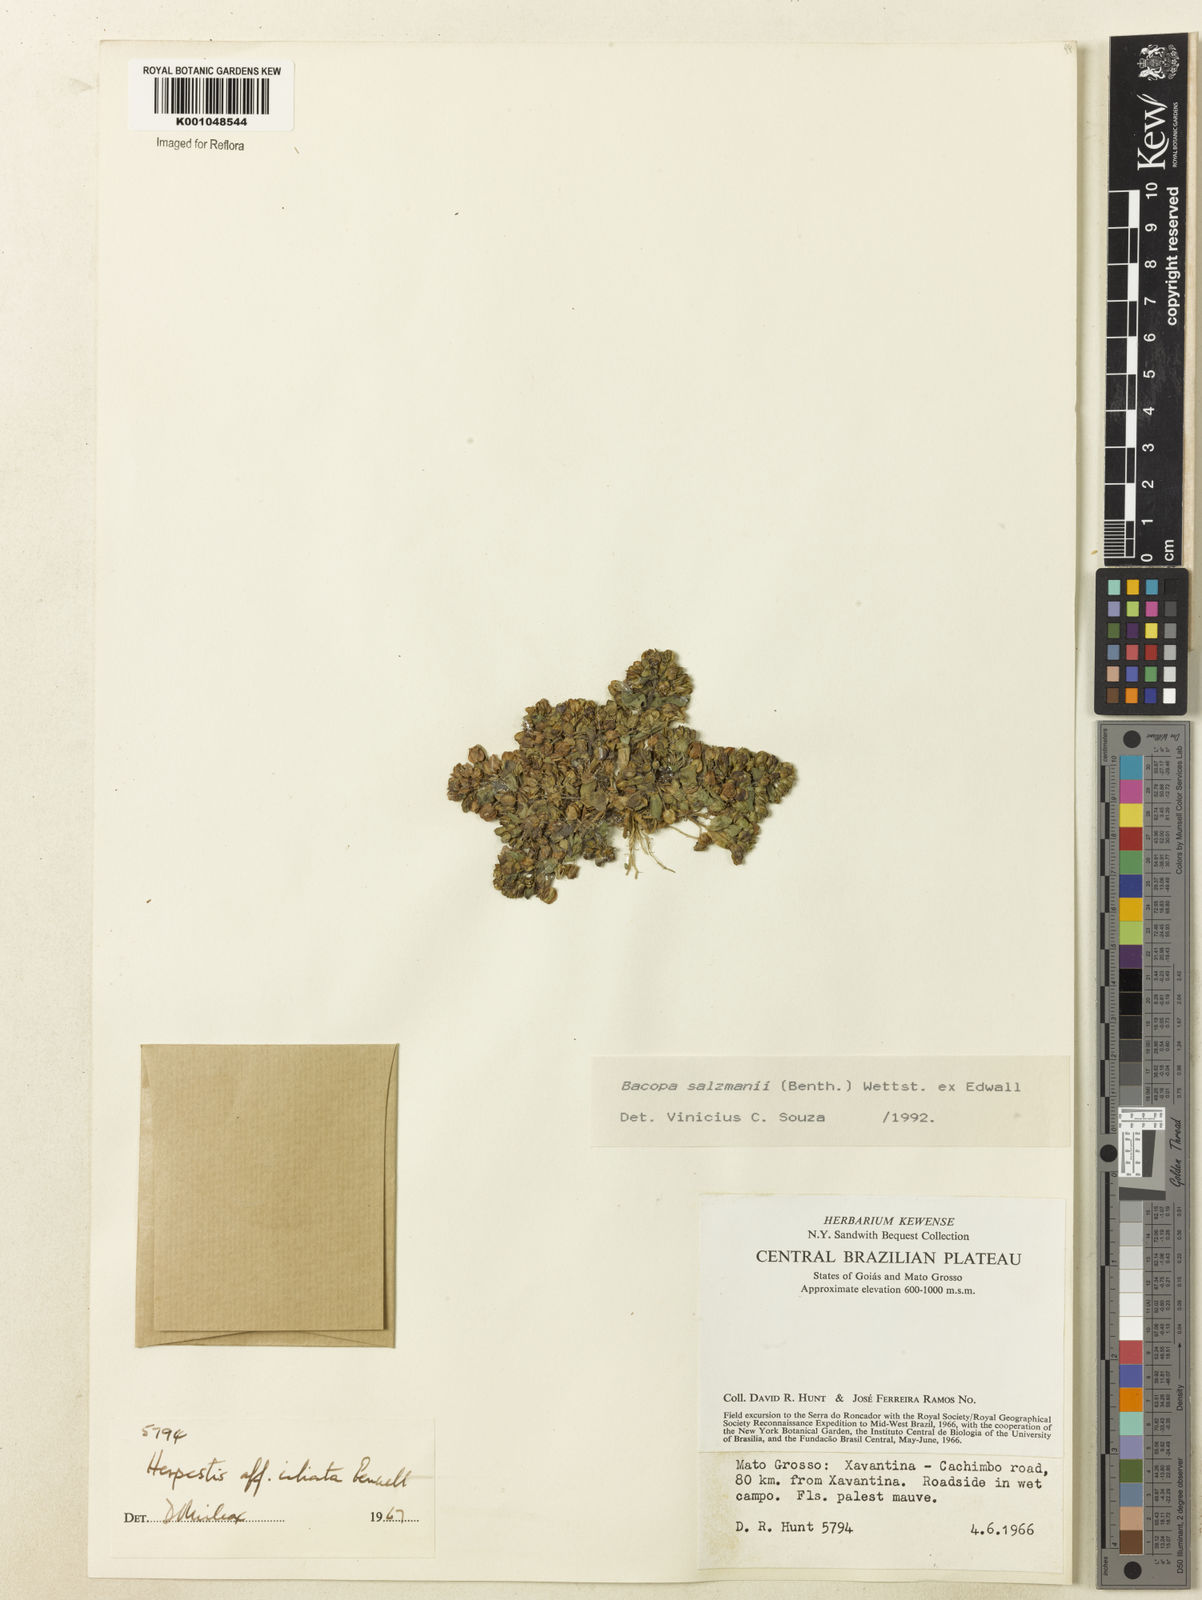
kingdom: Plantae
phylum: Tracheophyta
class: Magnoliopsida
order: Lamiales
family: Plantaginaceae
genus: Bacopa
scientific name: Bacopa salzmannii
